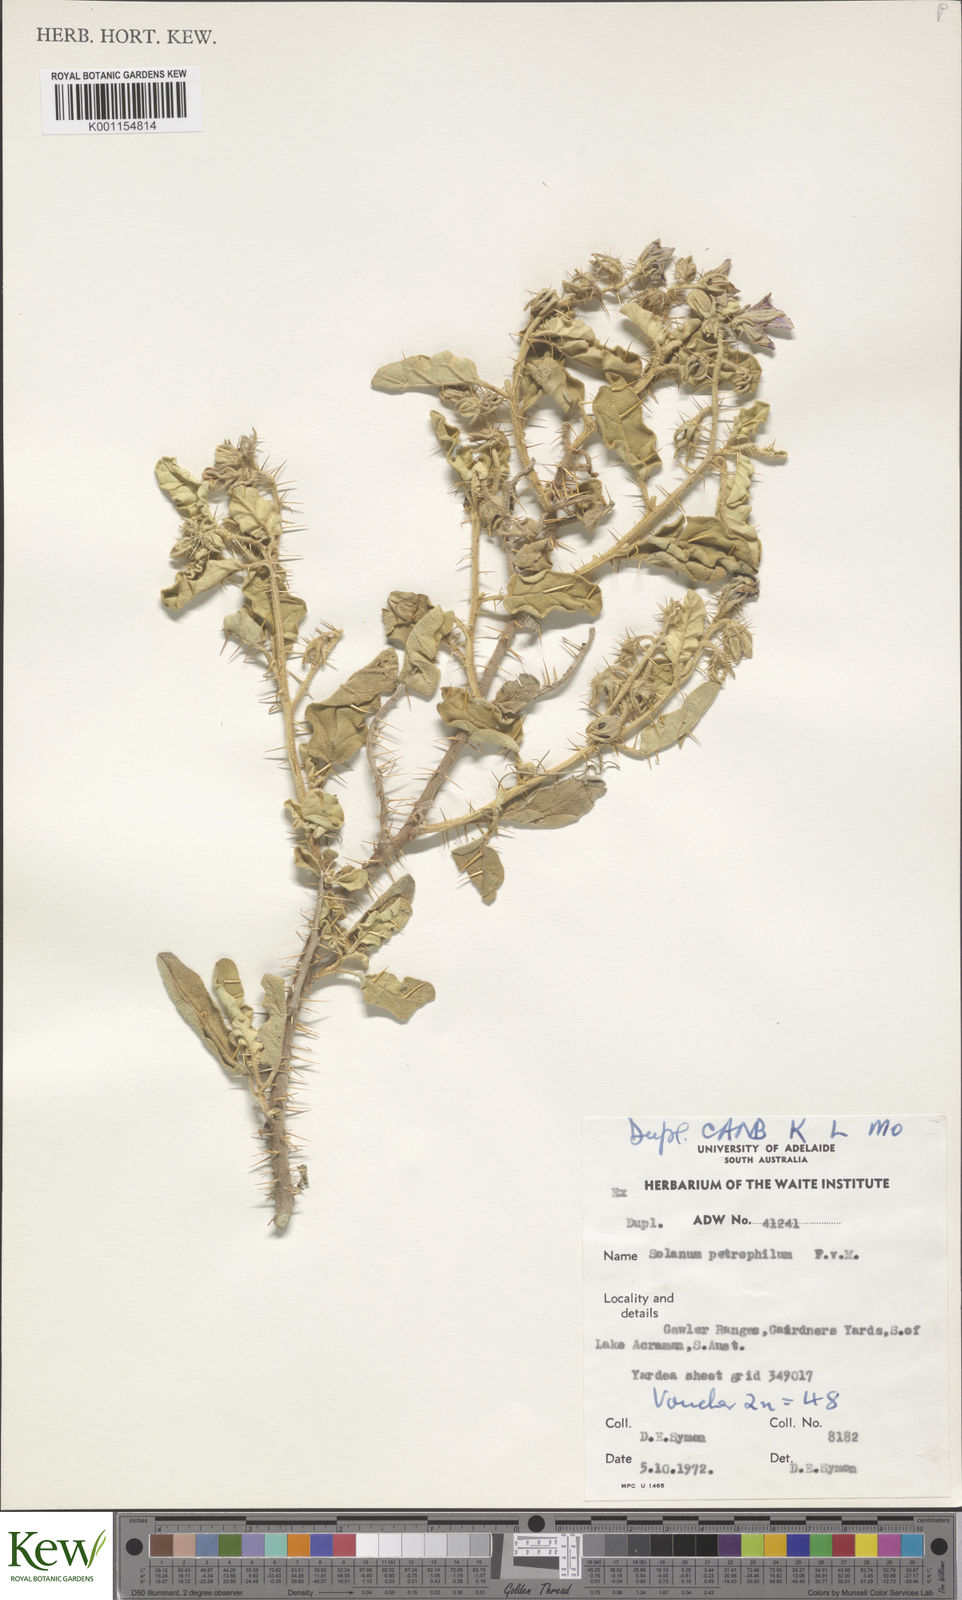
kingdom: Plantae
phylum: Tracheophyta
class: Magnoliopsida
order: Solanales
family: Solanaceae
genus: Solanum
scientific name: Solanum petrophilum
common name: Rock nightshade
